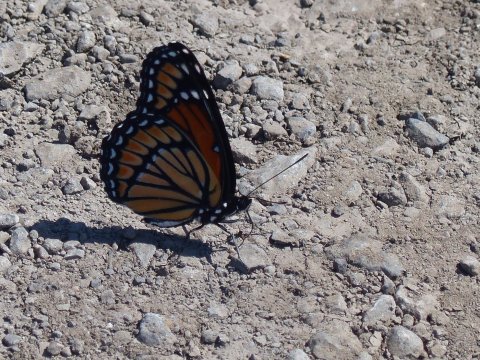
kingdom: Animalia
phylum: Arthropoda
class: Insecta
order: Lepidoptera
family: Nymphalidae
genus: Limenitis
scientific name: Limenitis archippus
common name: Viceroy
